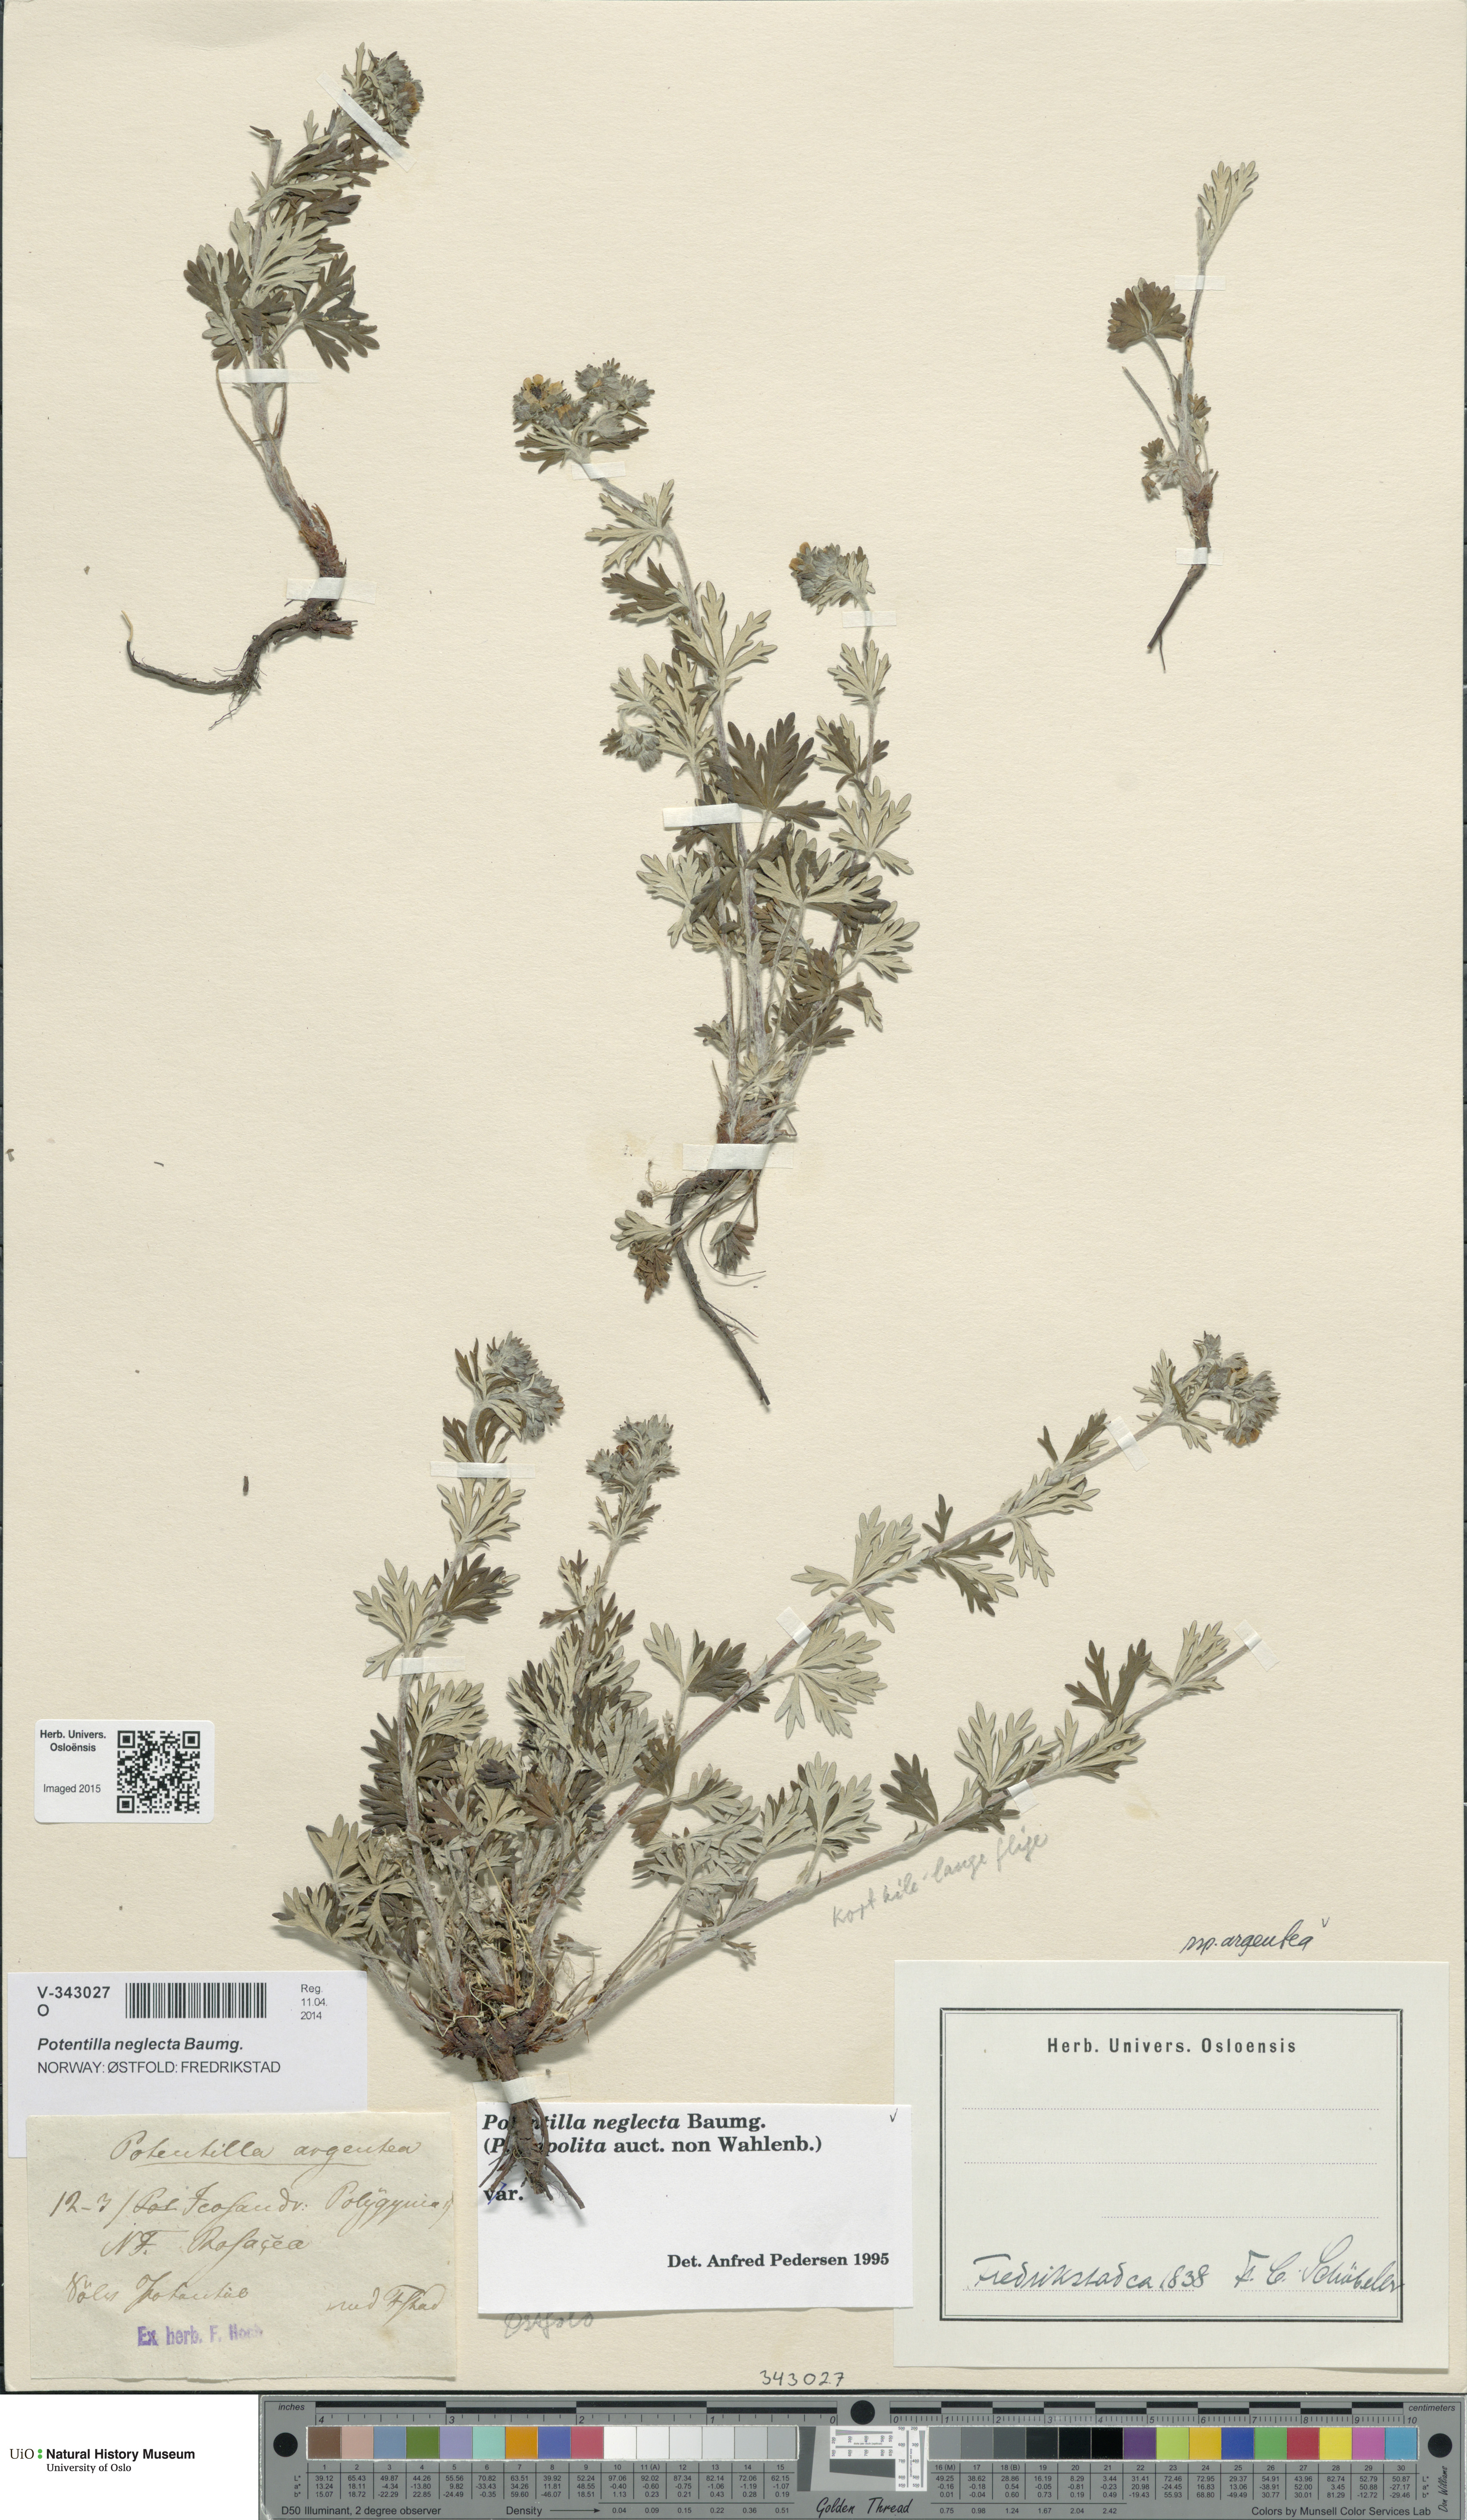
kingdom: Plantae
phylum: Tracheophyta
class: Magnoliopsida
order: Rosales
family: Rosaceae
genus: Potentilla
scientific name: Potentilla neglecta
